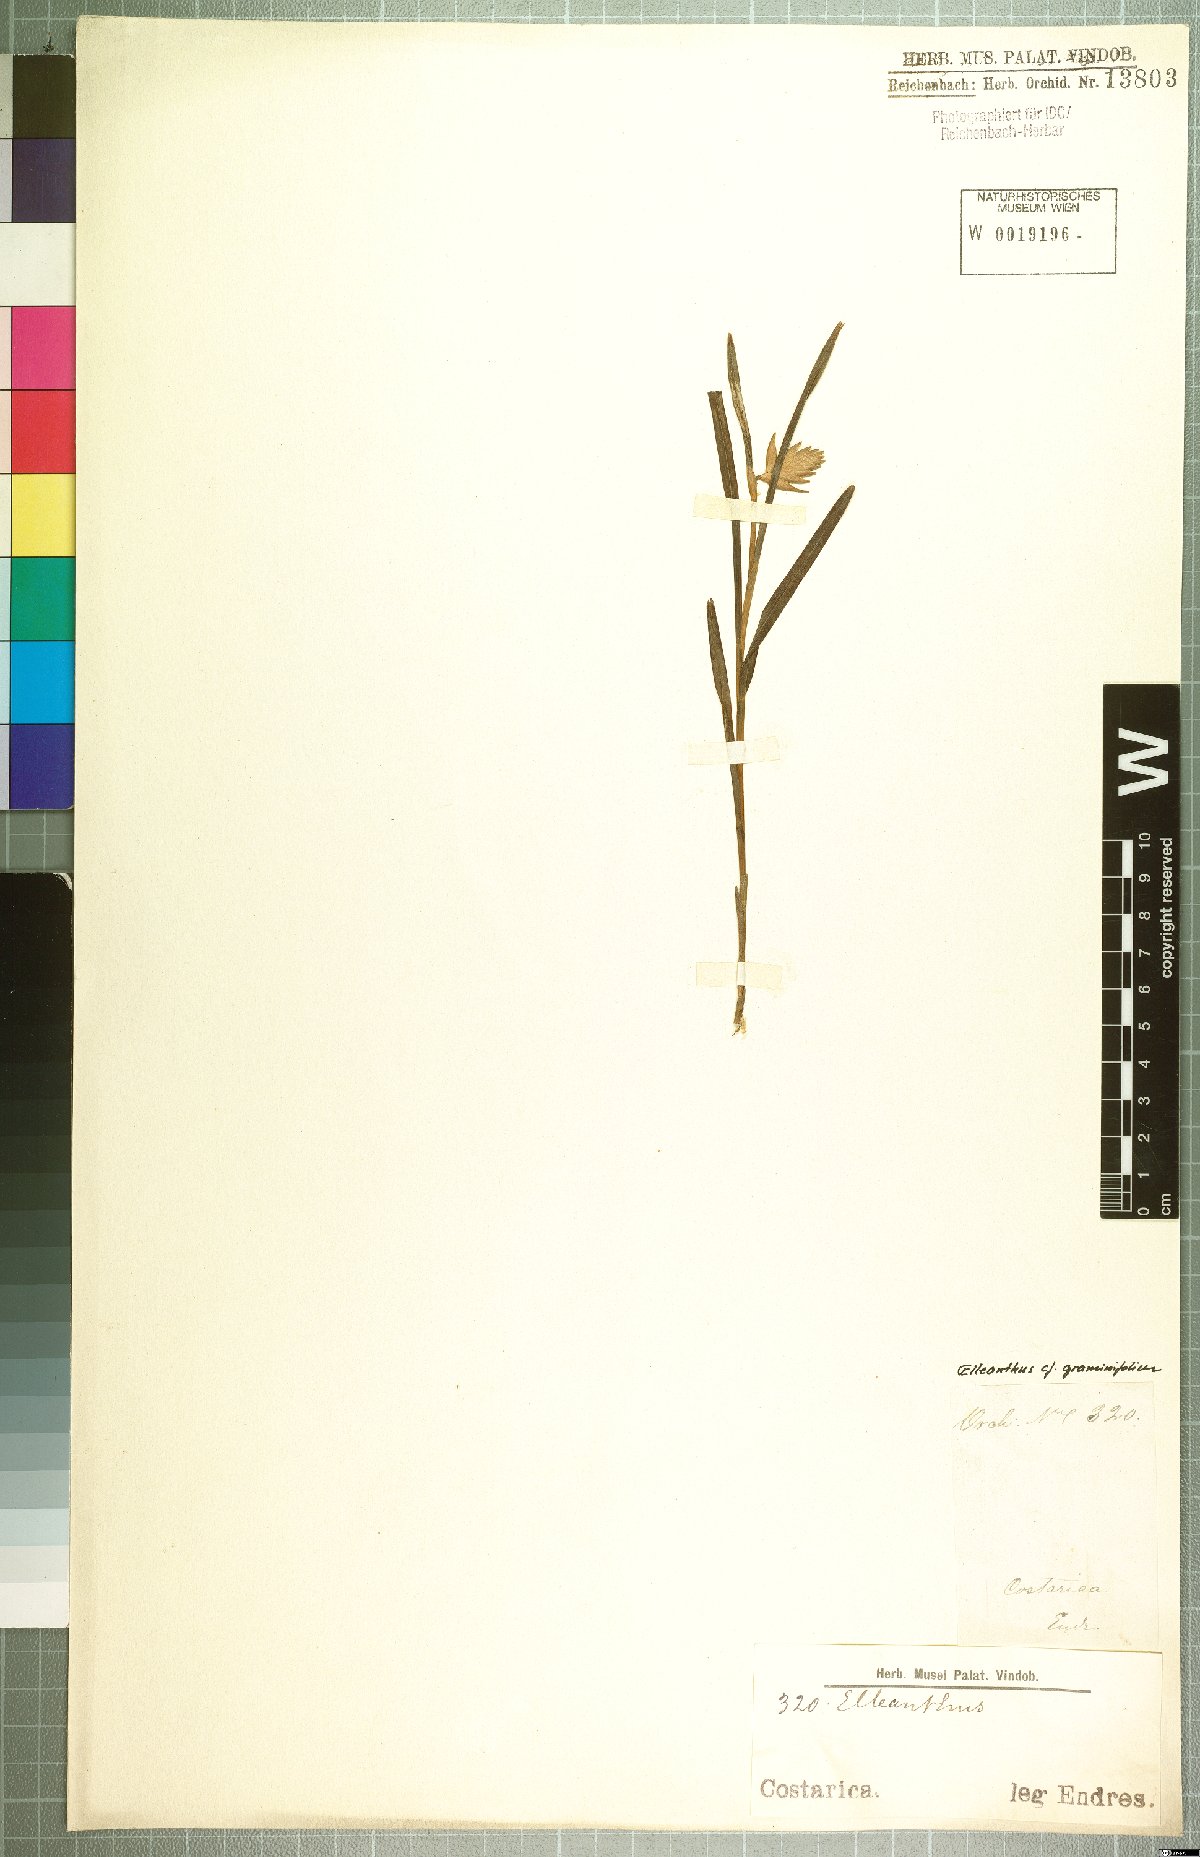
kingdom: Plantae
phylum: Tracheophyta
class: Liliopsida
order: Asparagales
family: Orchidaceae
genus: Elleanthus
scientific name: Elleanthus graminifolius
